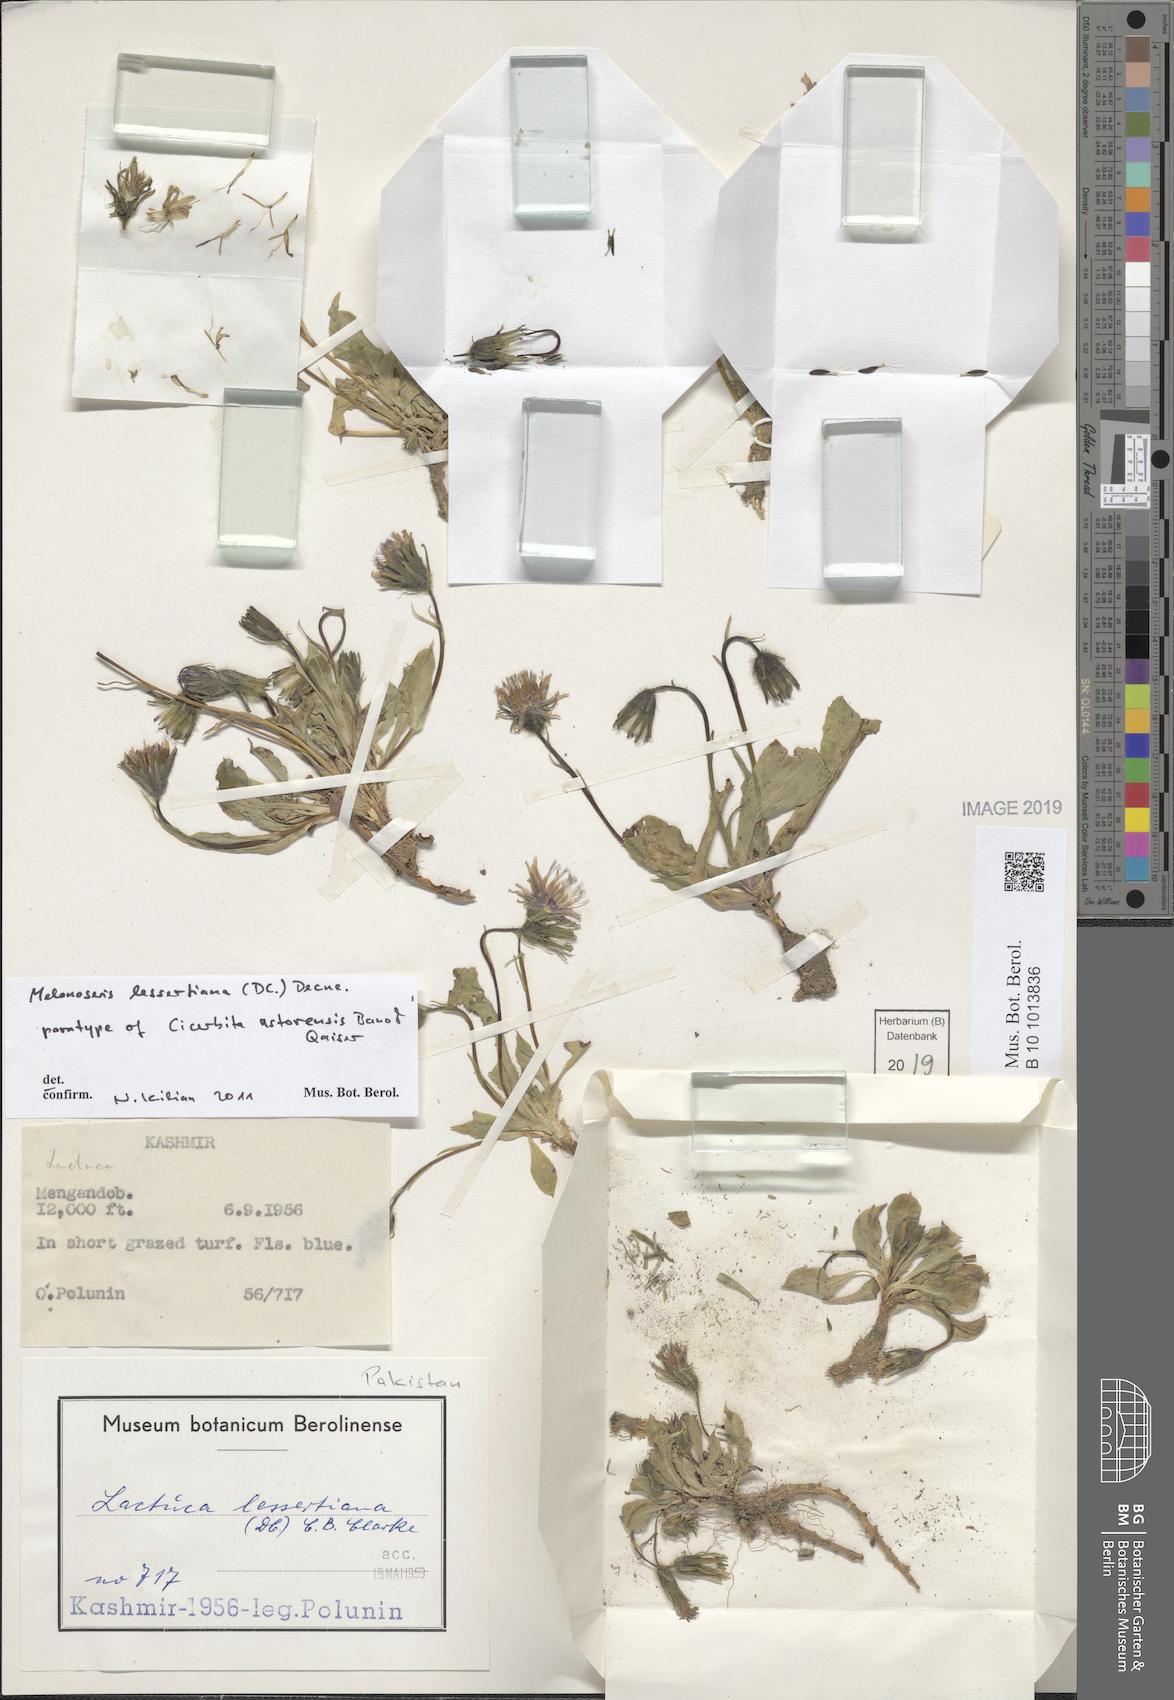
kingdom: Plantae
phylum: Tracheophyta
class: Magnoliopsida
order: Asterales
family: Asteraceae
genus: Melanoseris
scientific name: Melanoseris lessertiana
